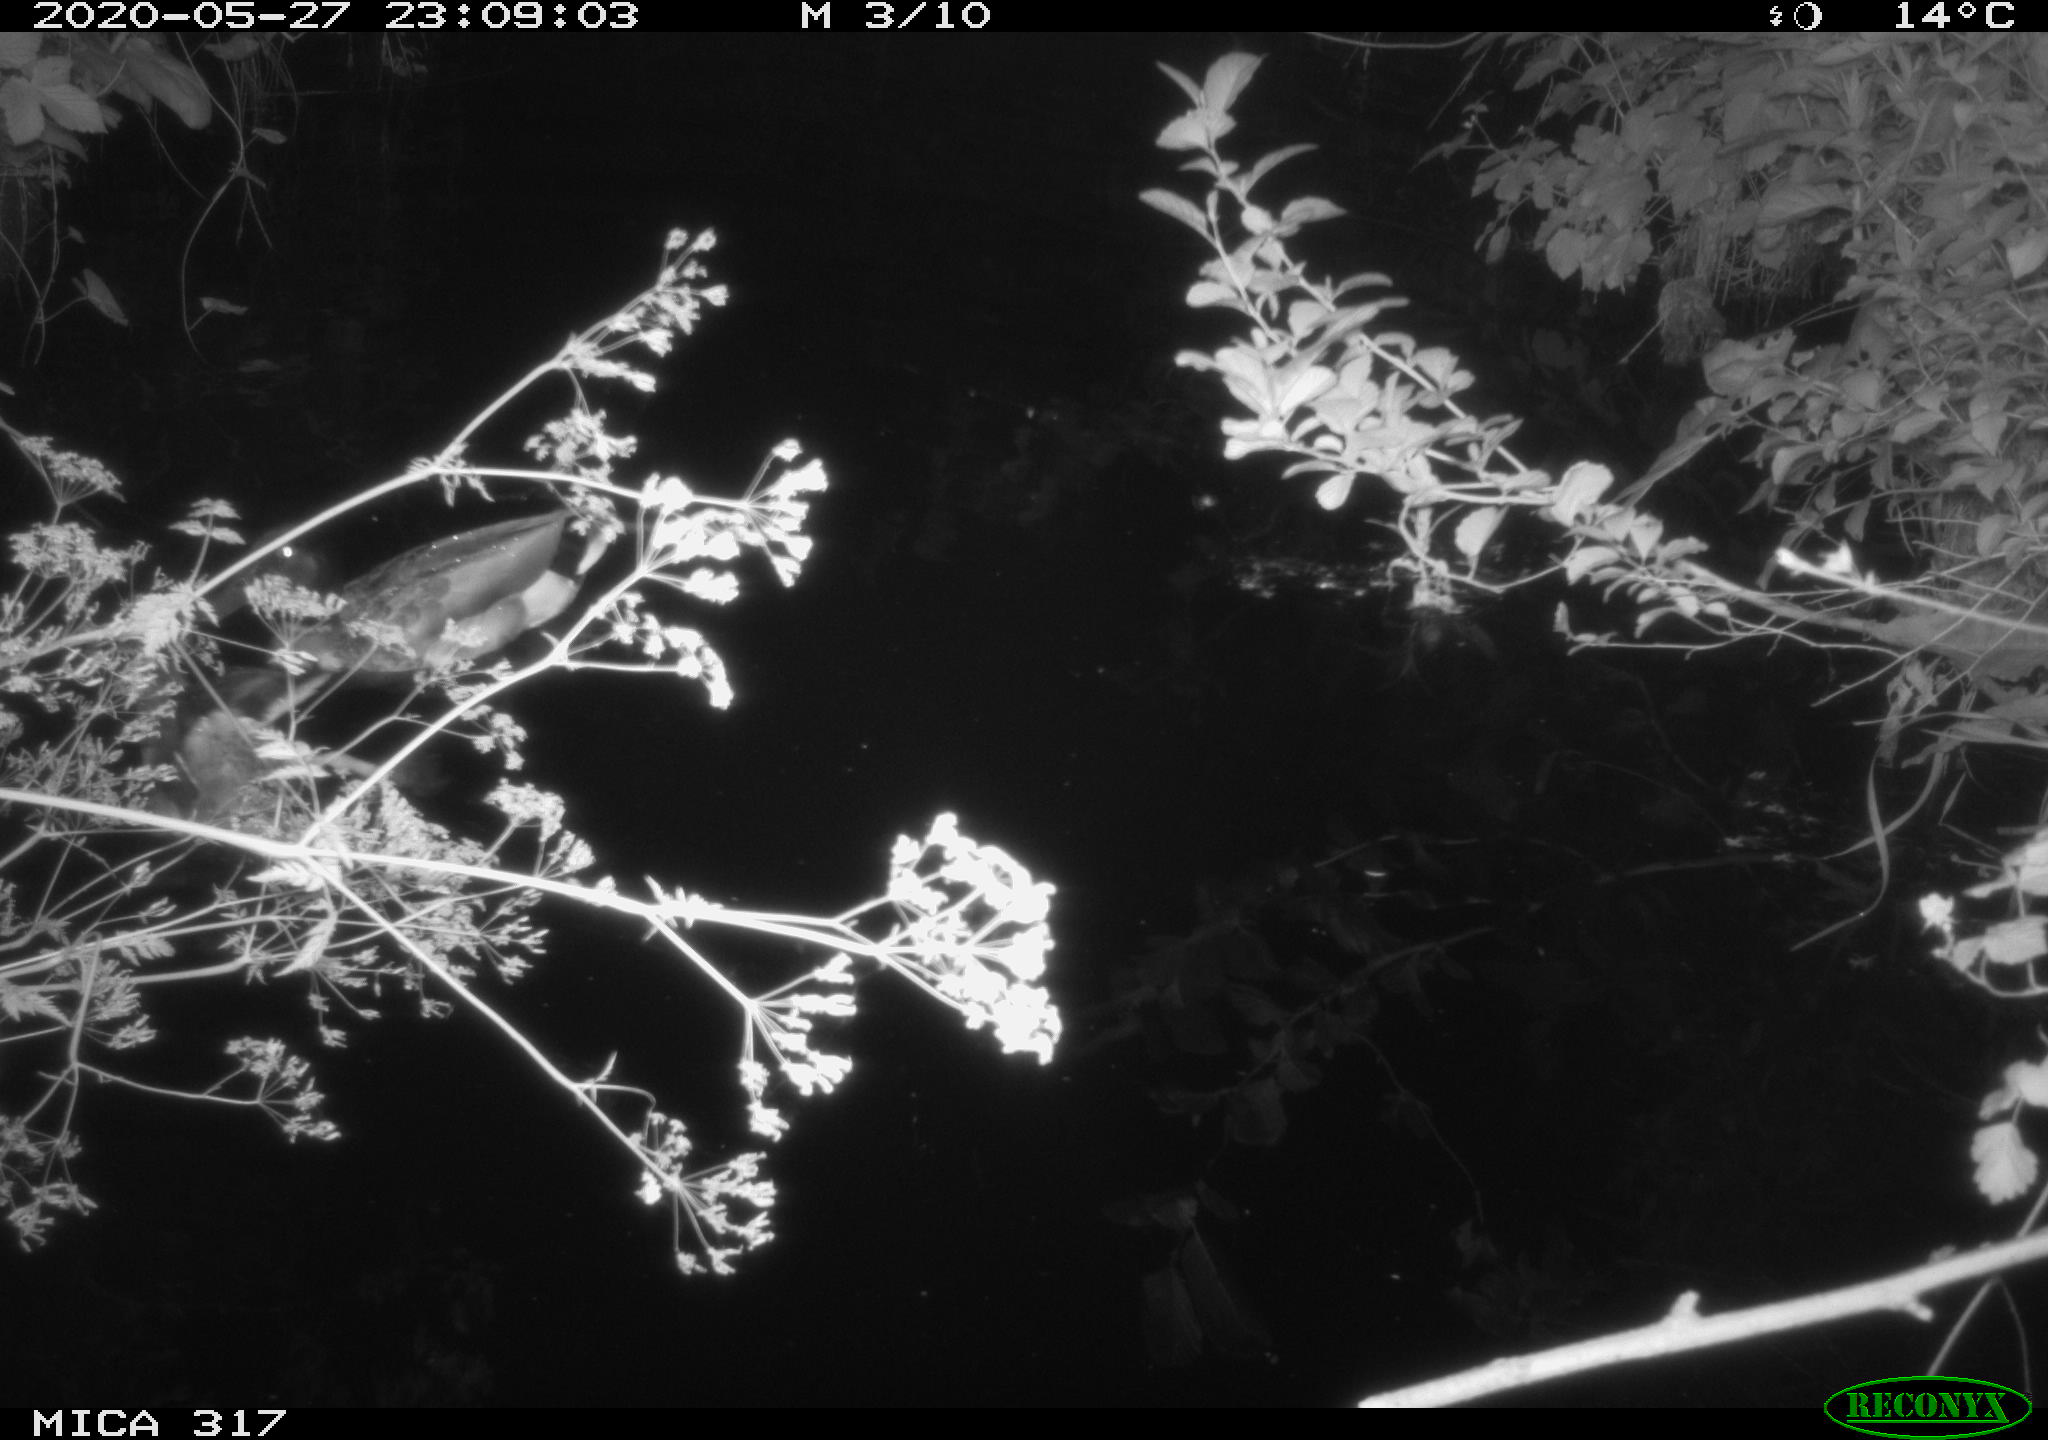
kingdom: Animalia
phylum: Chordata
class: Aves
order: Anseriformes
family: Anatidae
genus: Anas
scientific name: Anas platyrhynchos
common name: Mallard
